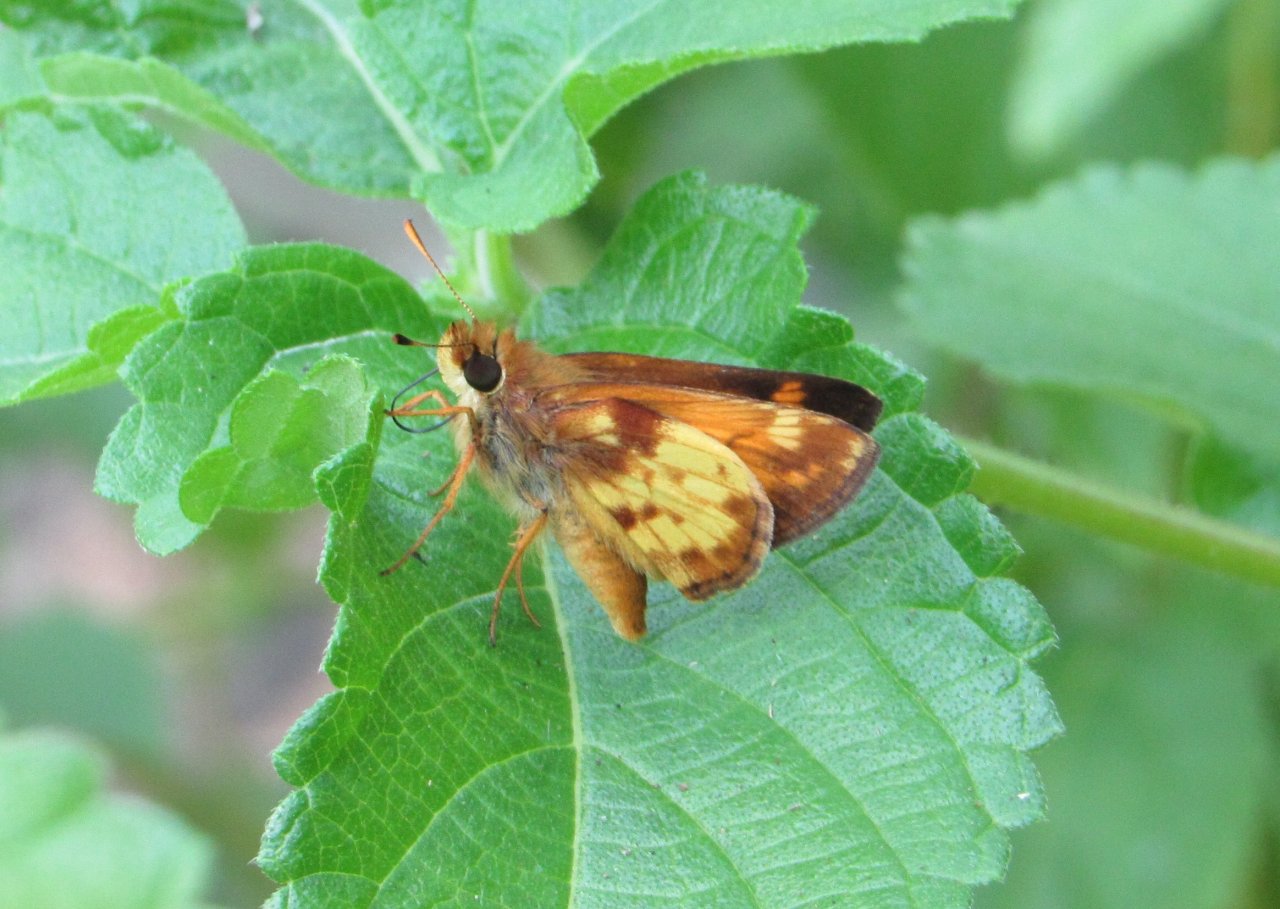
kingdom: Animalia
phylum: Arthropoda
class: Insecta
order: Lepidoptera
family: Hesperiidae
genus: Lon
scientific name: Lon zabulon
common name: Zabulon Skipper
